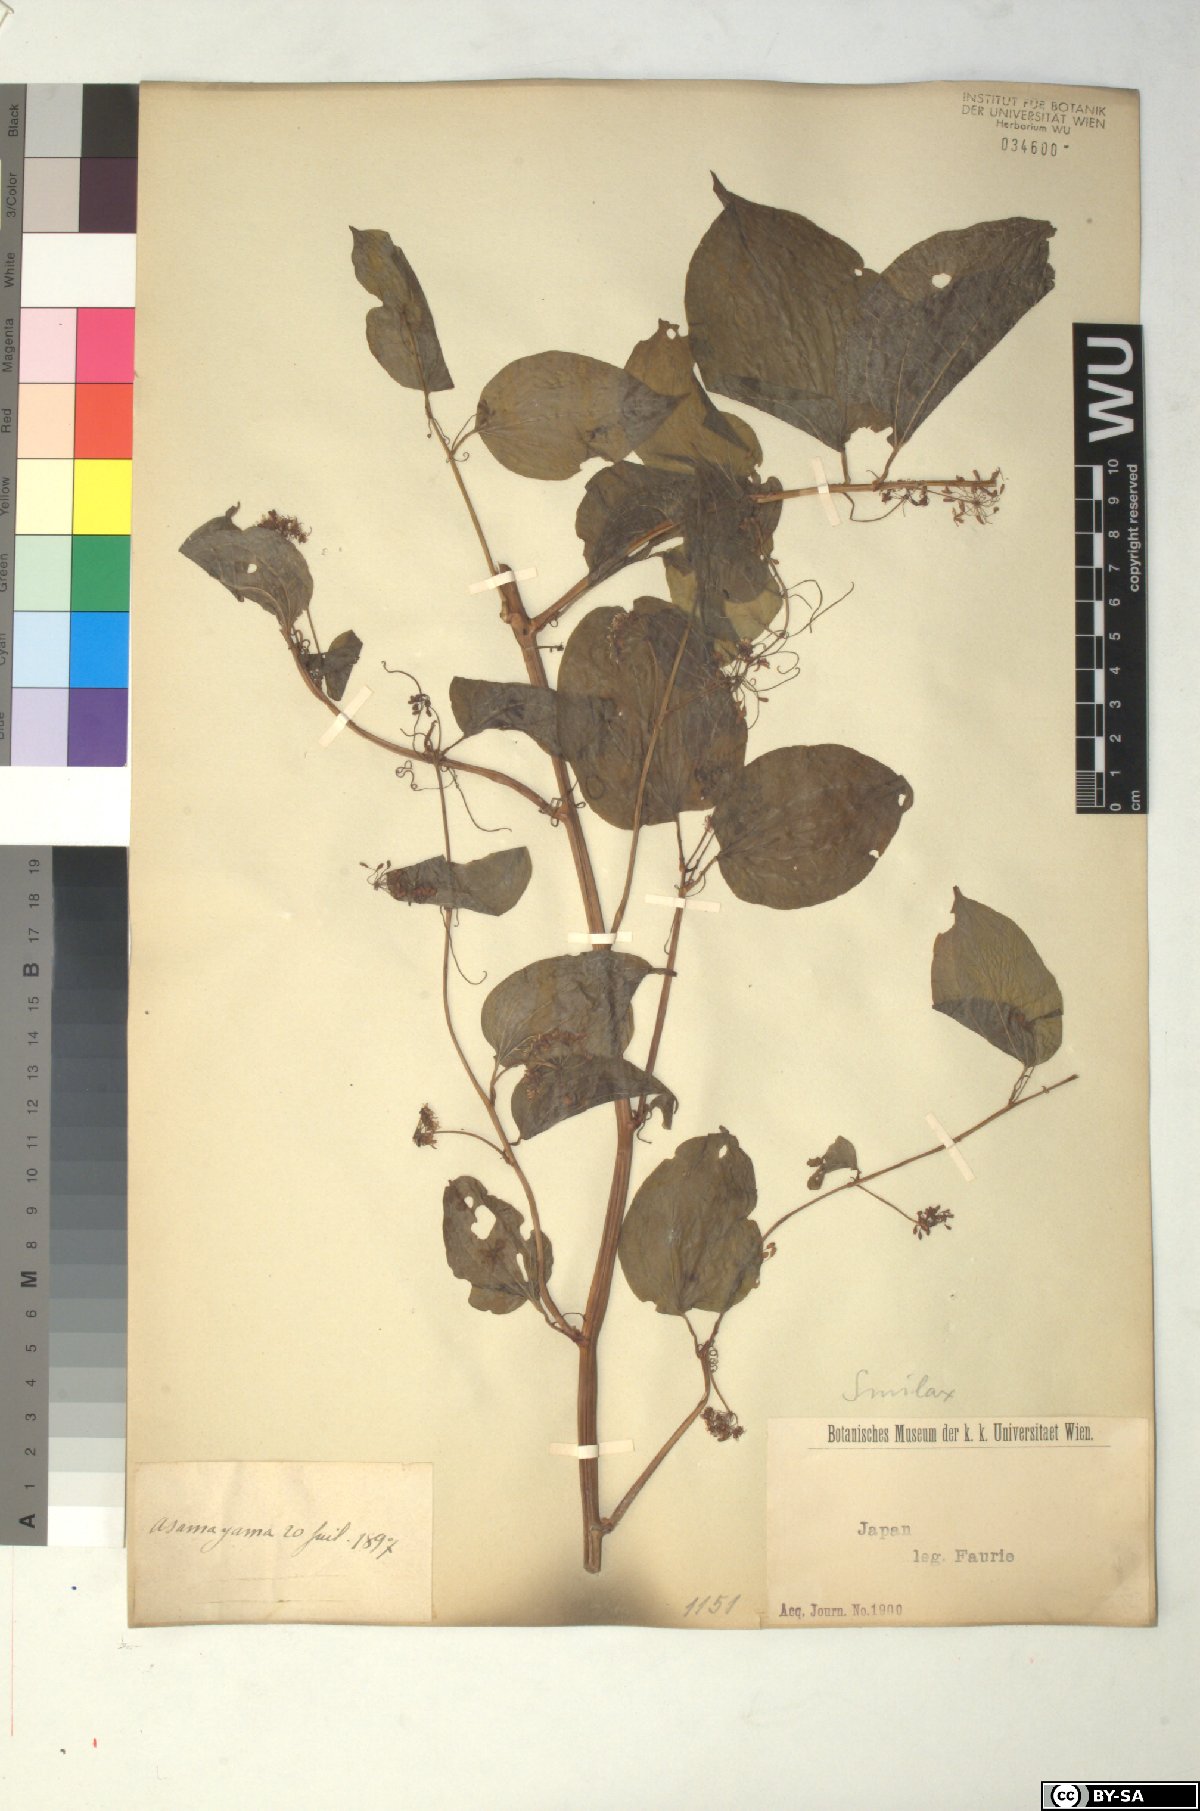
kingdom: Plantae
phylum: Tracheophyta
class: Liliopsida
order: Liliales
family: Smilacaceae
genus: Smilax
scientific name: Smilax
